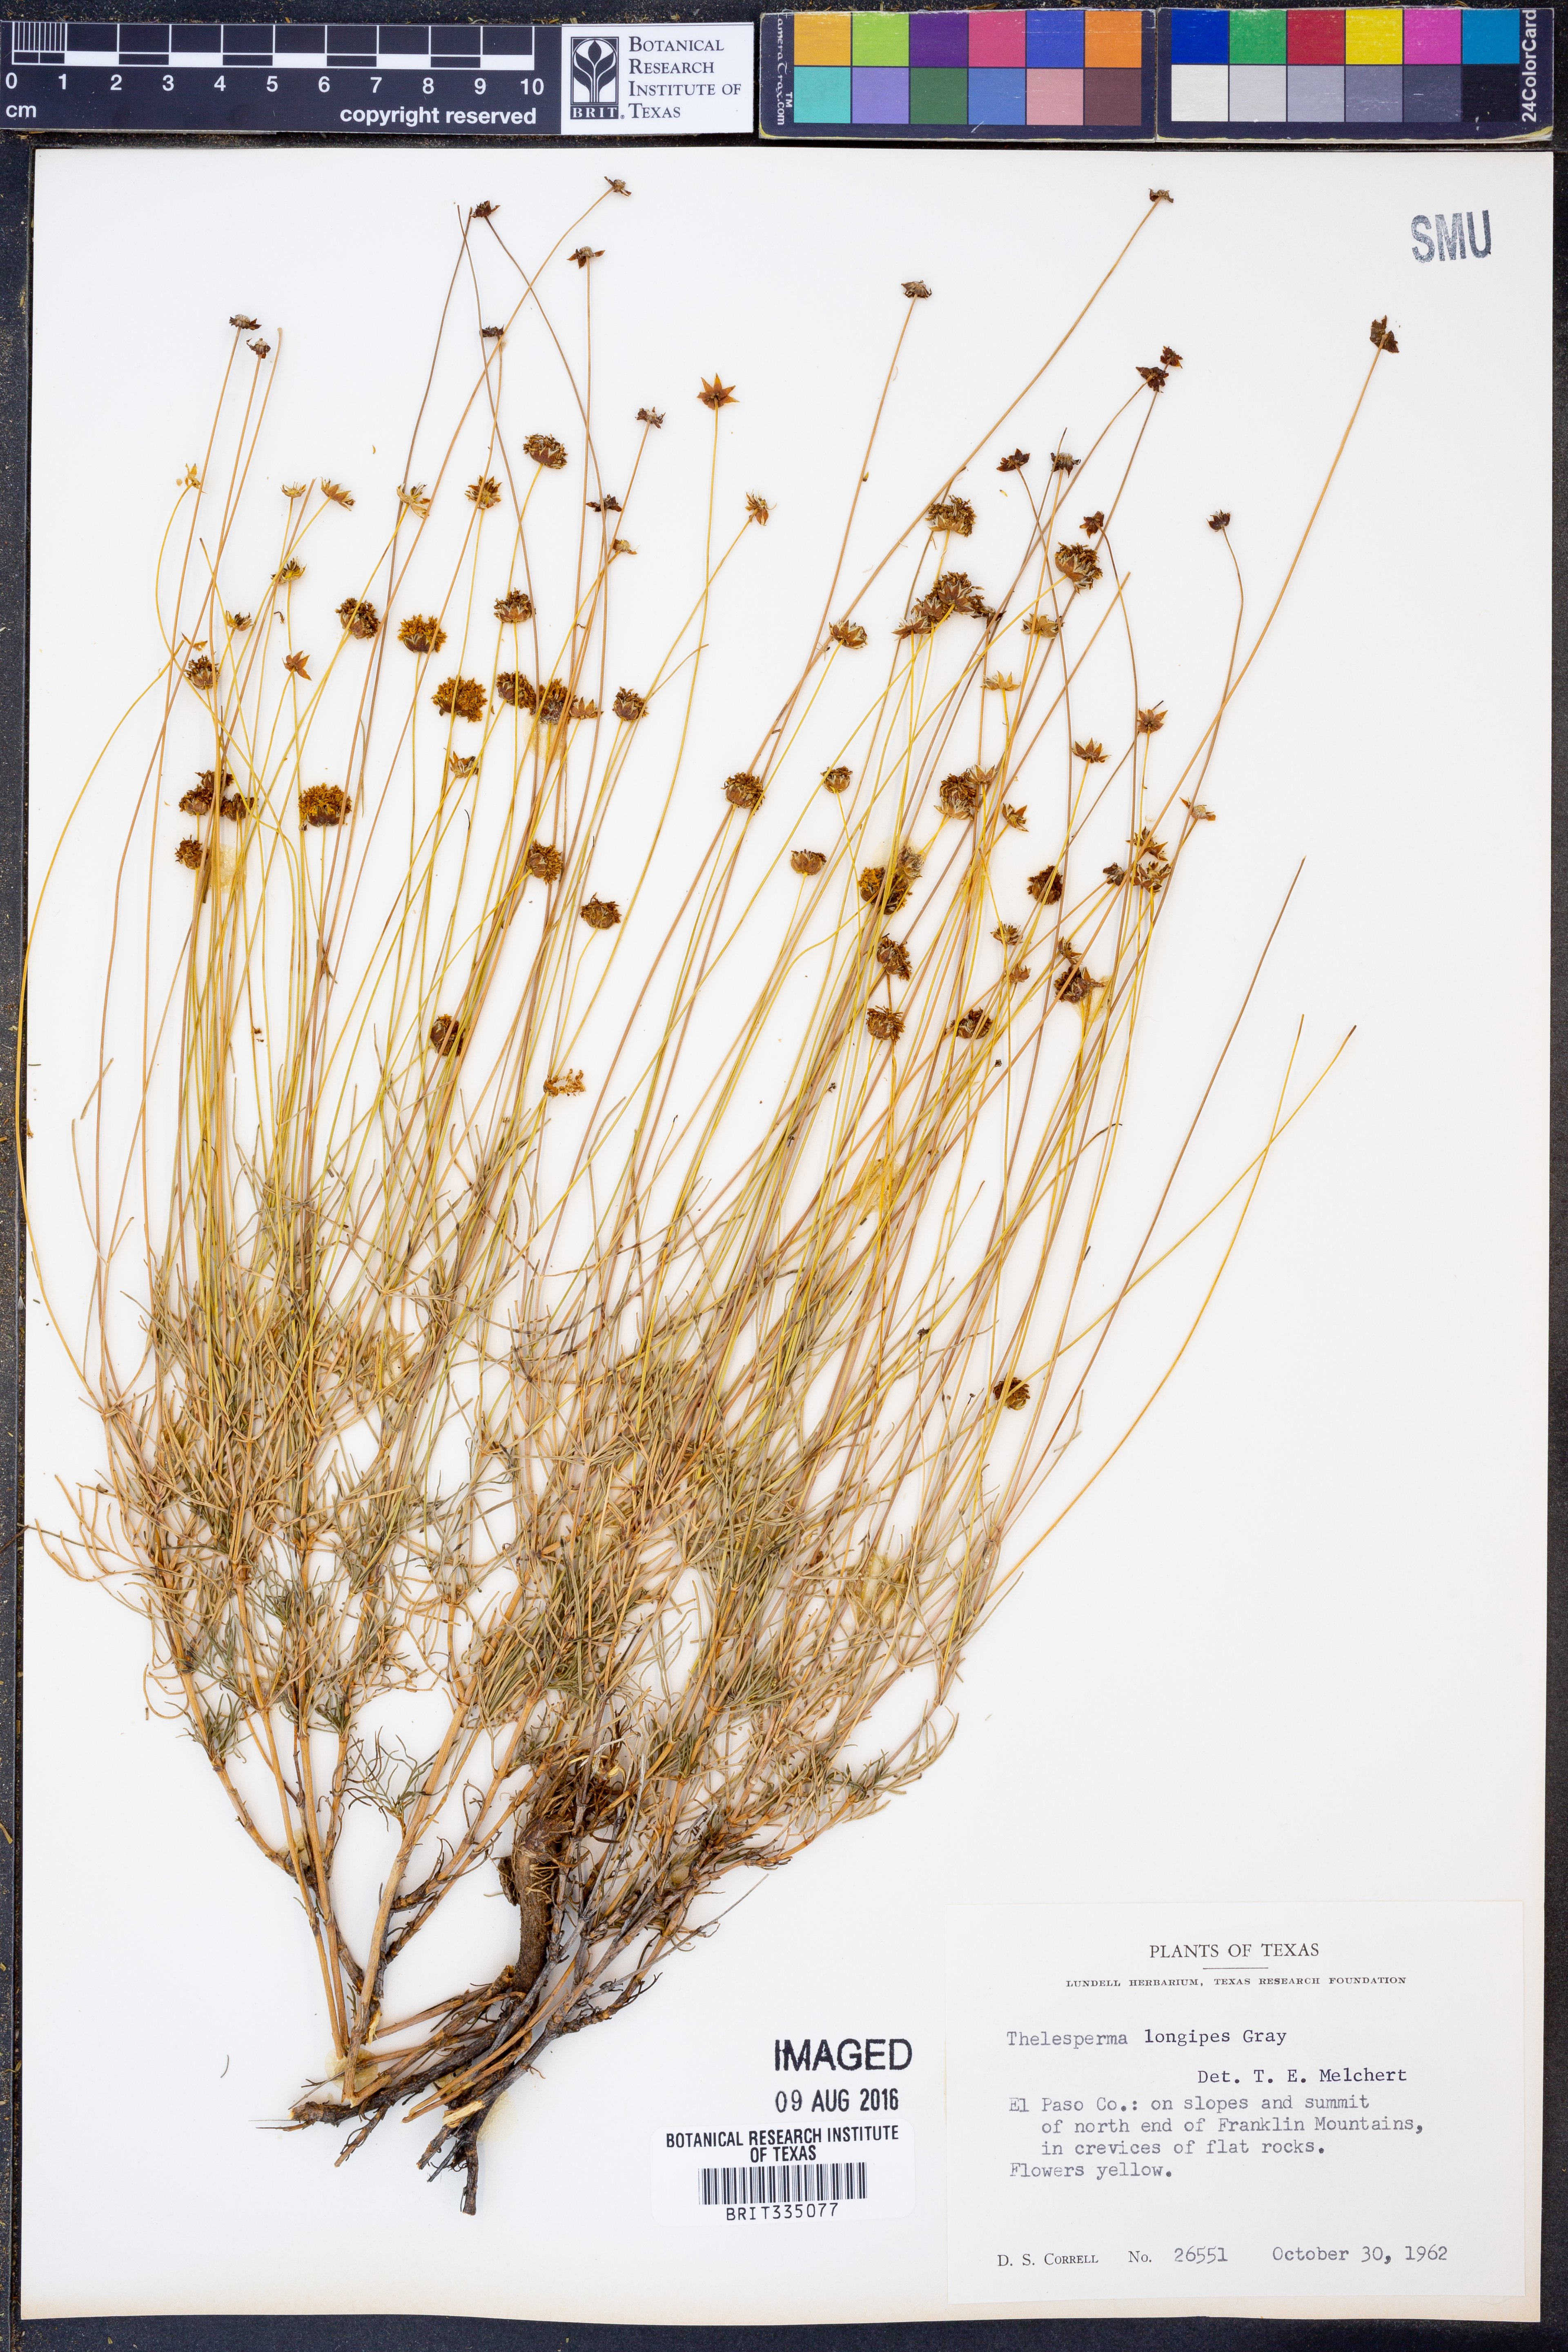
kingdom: Plantae
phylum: Tracheophyta
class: Magnoliopsida
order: Asterales
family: Asteraceae
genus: Thelesperma
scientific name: Thelesperma longipes
